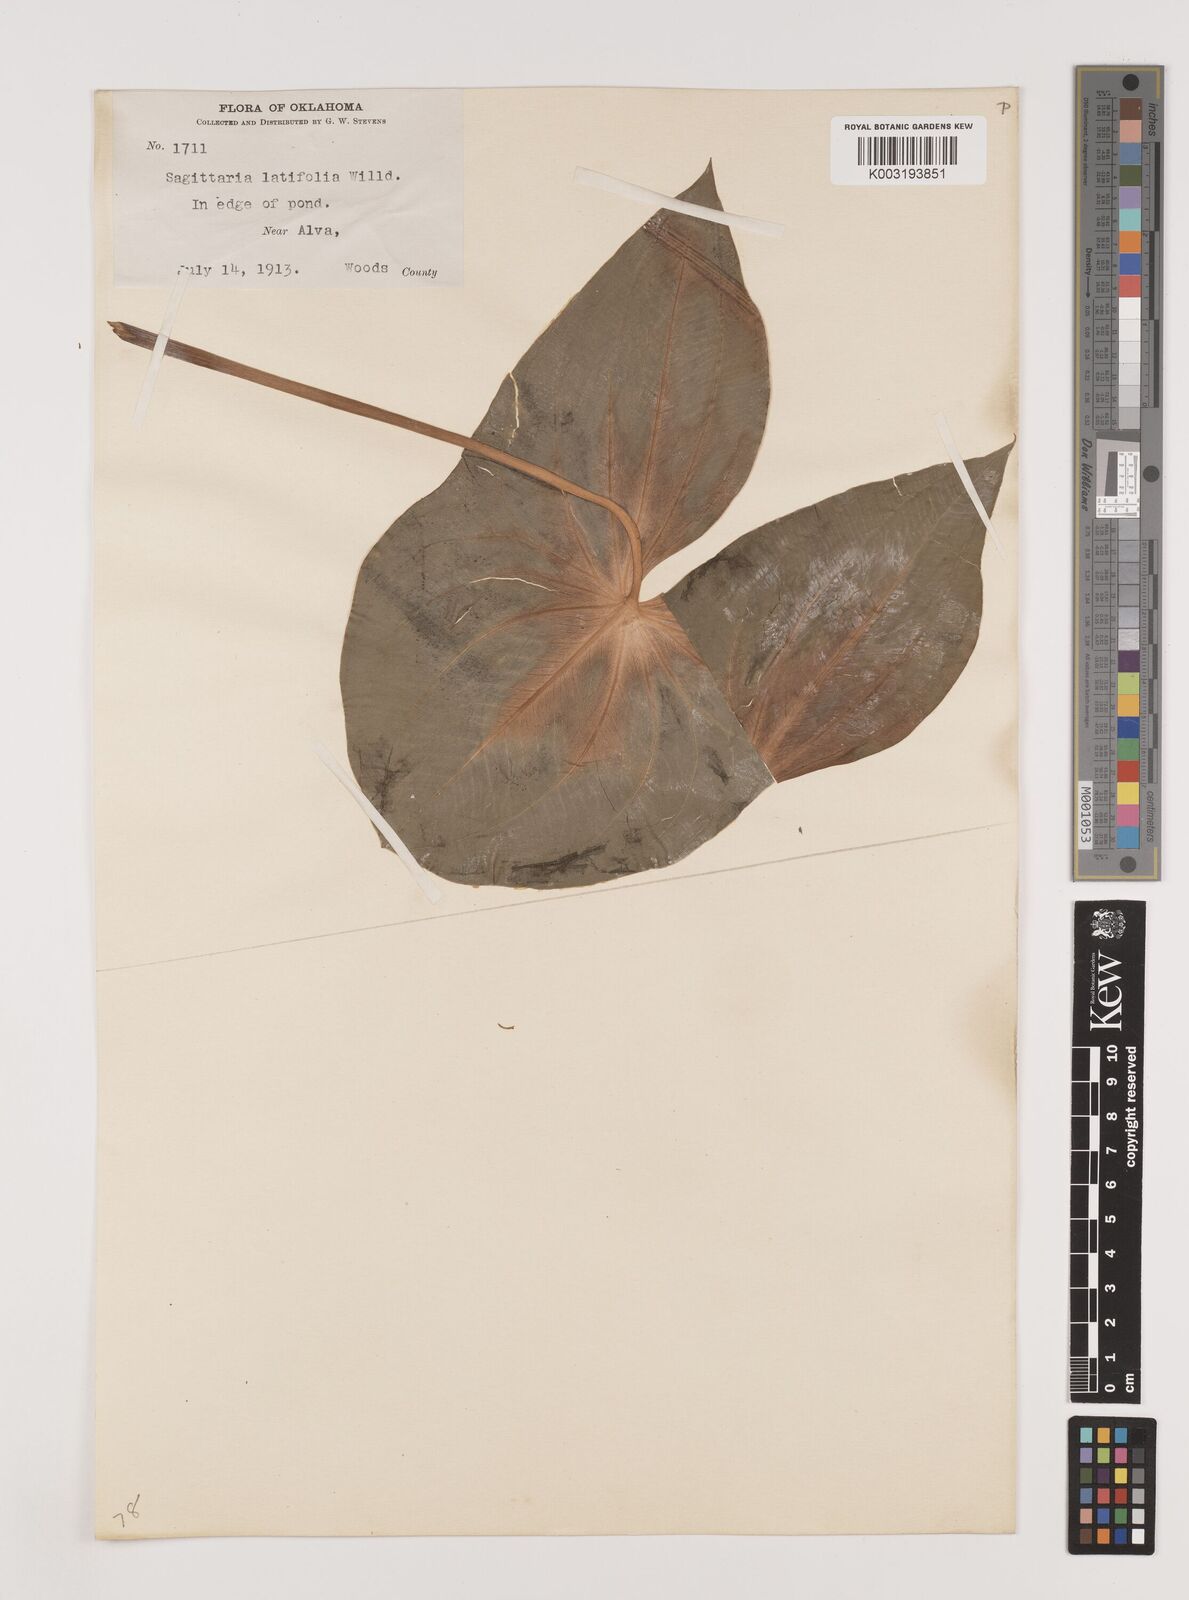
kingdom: Plantae
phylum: Tracheophyta
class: Liliopsida
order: Alismatales
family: Alismataceae
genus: Sagittaria
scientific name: Sagittaria latifolia
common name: Duck-potato
